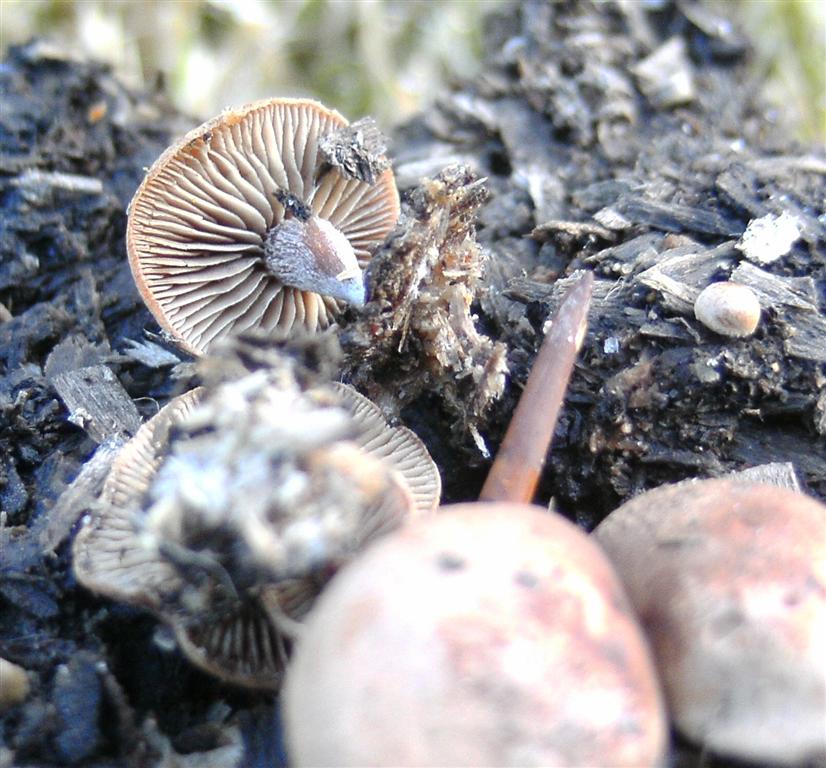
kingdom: Fungi
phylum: Basidiomycota
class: Agaricomycetes
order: Agaricales
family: Strophariaceae
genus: Deconica
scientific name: Deconica horizontalis
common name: ved-stråhat
